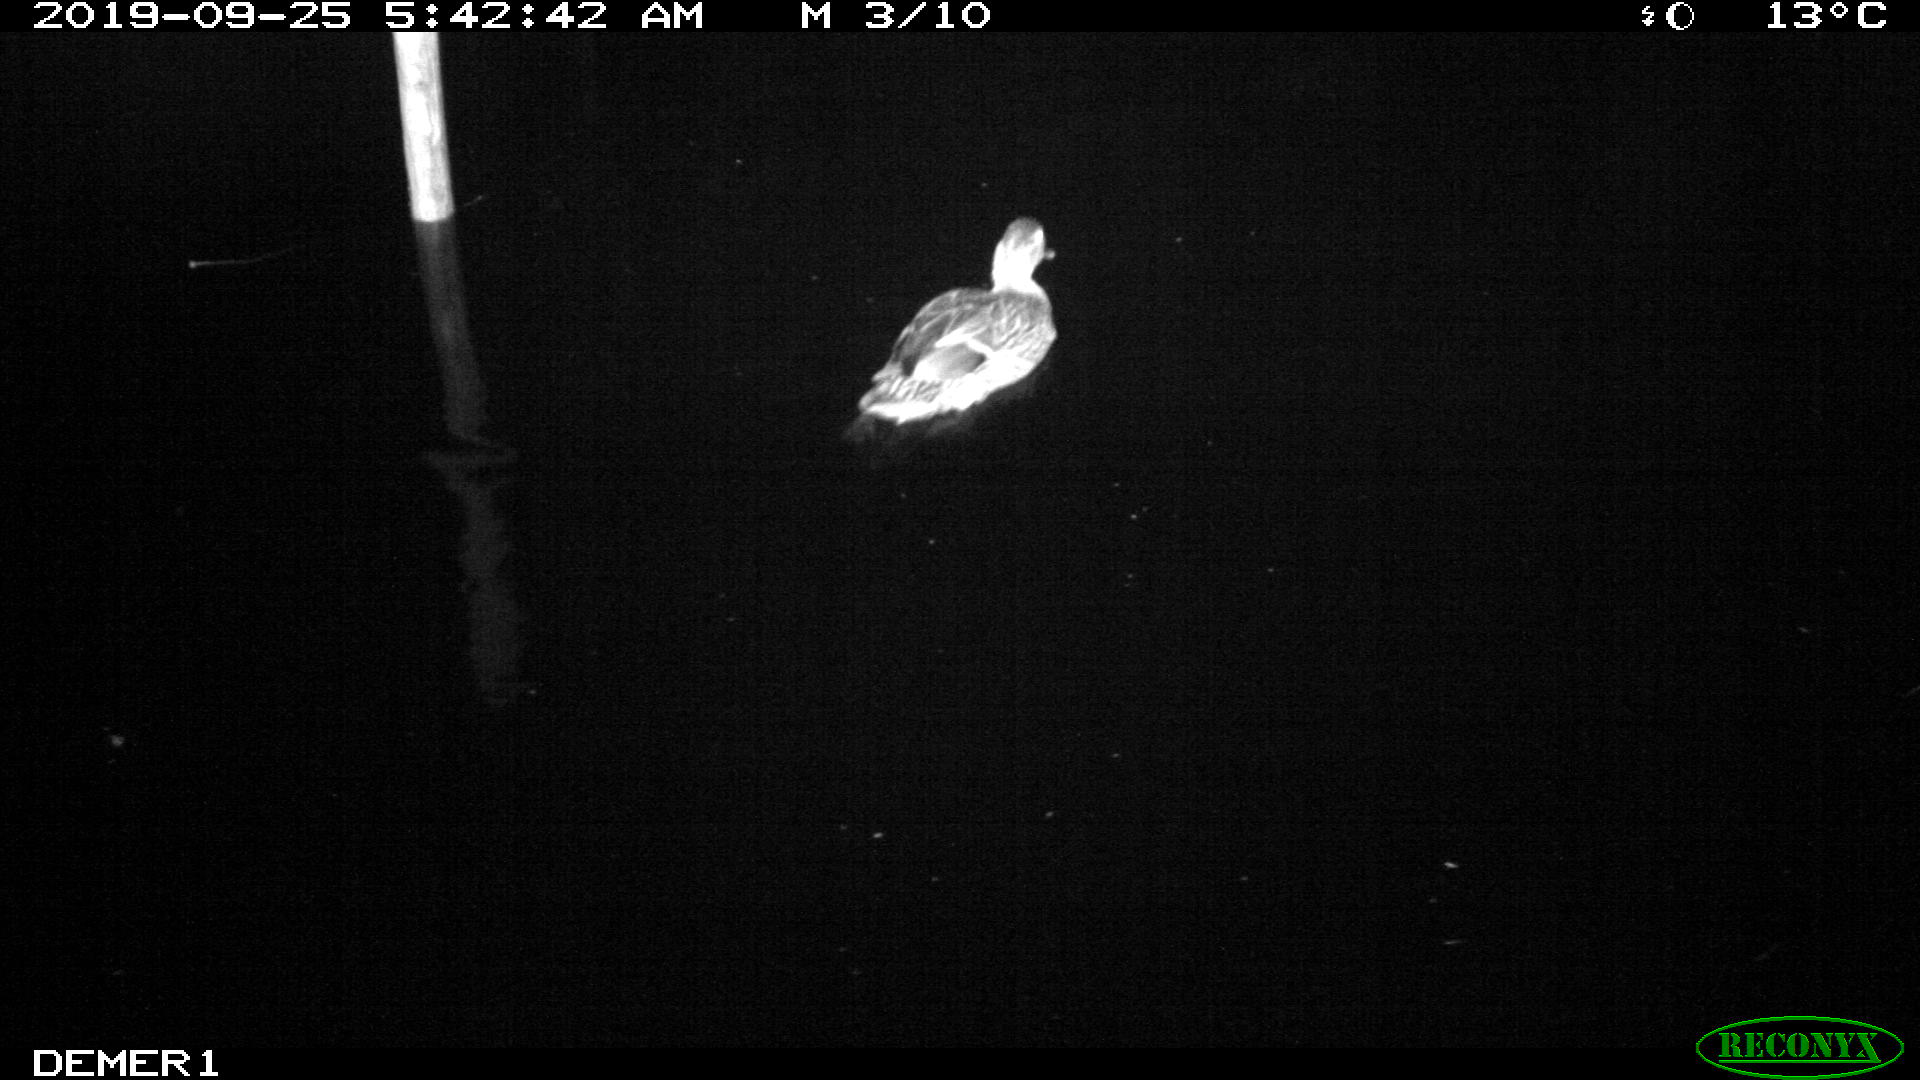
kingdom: Animalia
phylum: Chordata
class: Aves
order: Anseriformes
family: Anatidae
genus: Anas
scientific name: Anas platyrhynchos
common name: Mallard
